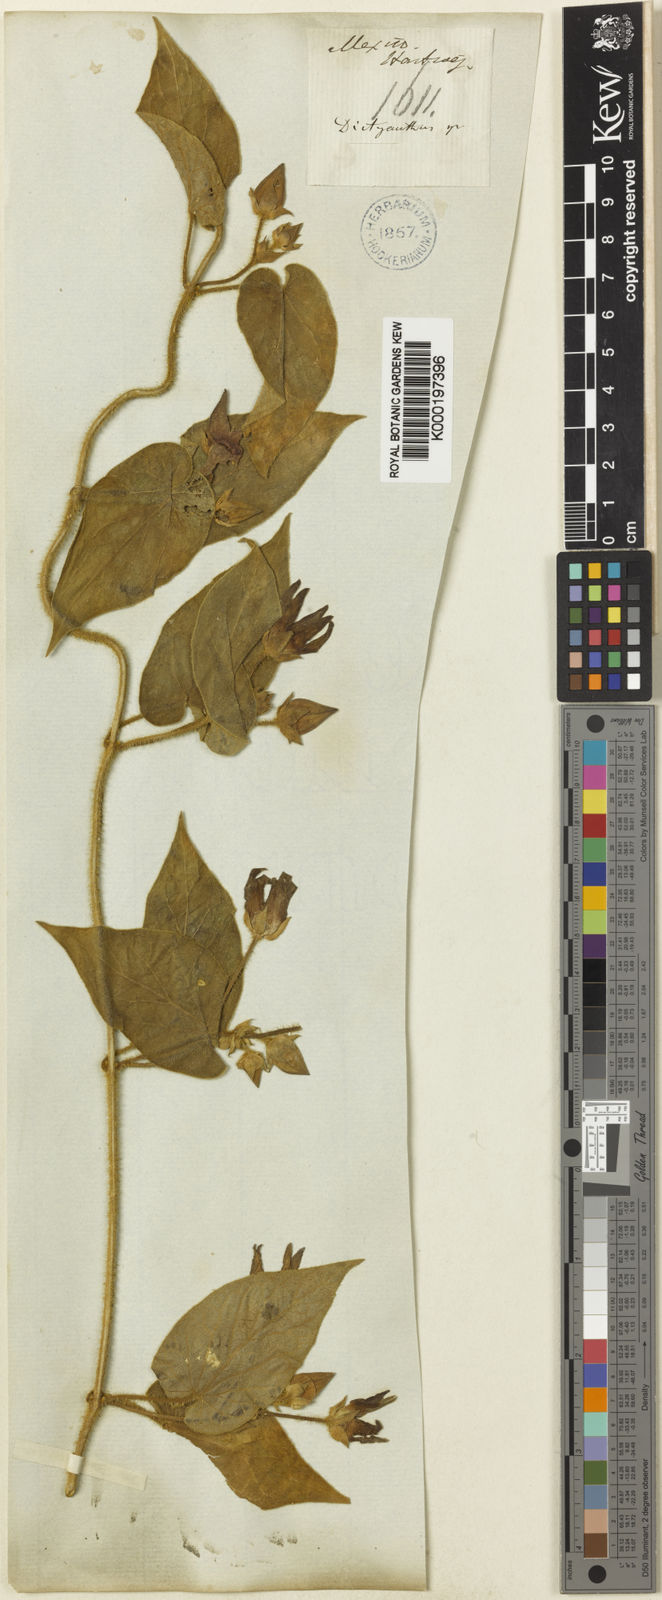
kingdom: Plantae
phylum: Tracheophyta
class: Magnoliopsida
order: Gentianales
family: Apocynaceae
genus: Matelea
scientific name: Matelea pilosa
